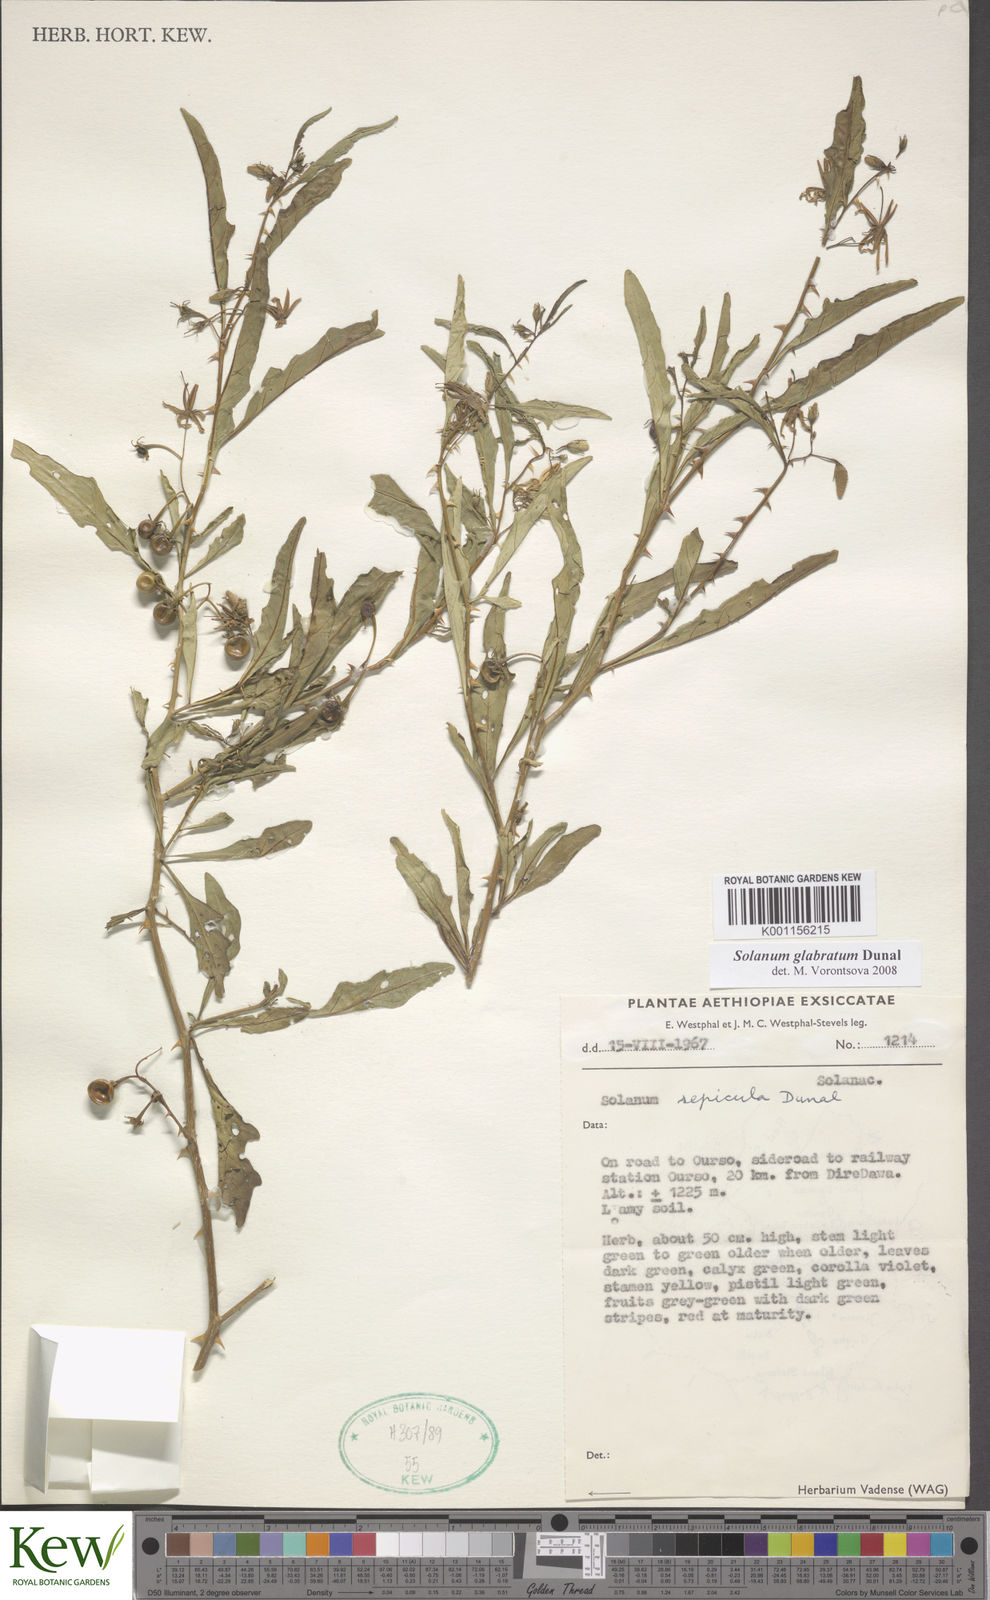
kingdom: Plantae
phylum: Tracheophyta
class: Magnoliopsida
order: Solanales
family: Solanaceae
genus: Solanum
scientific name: Solanum glabratum
